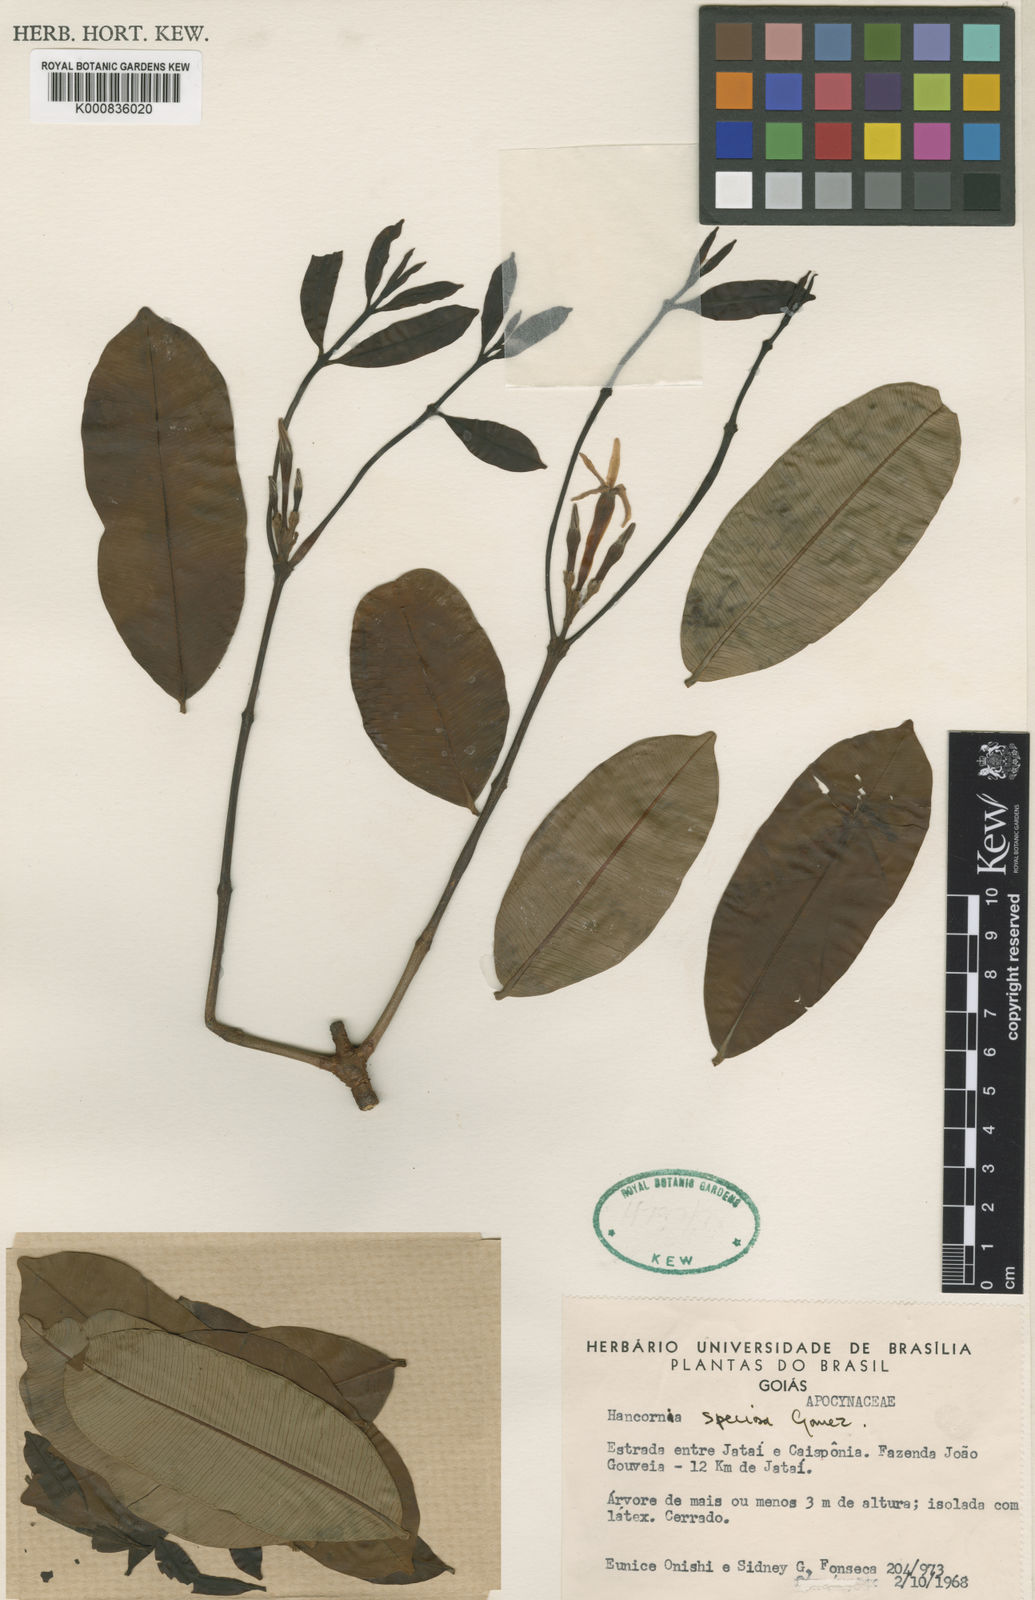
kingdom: Plantae
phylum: Tracheophyta
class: Magnoliopsida
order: Gentianales
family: Apocynaceae
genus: Hancornia
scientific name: Hancornia speciosa
